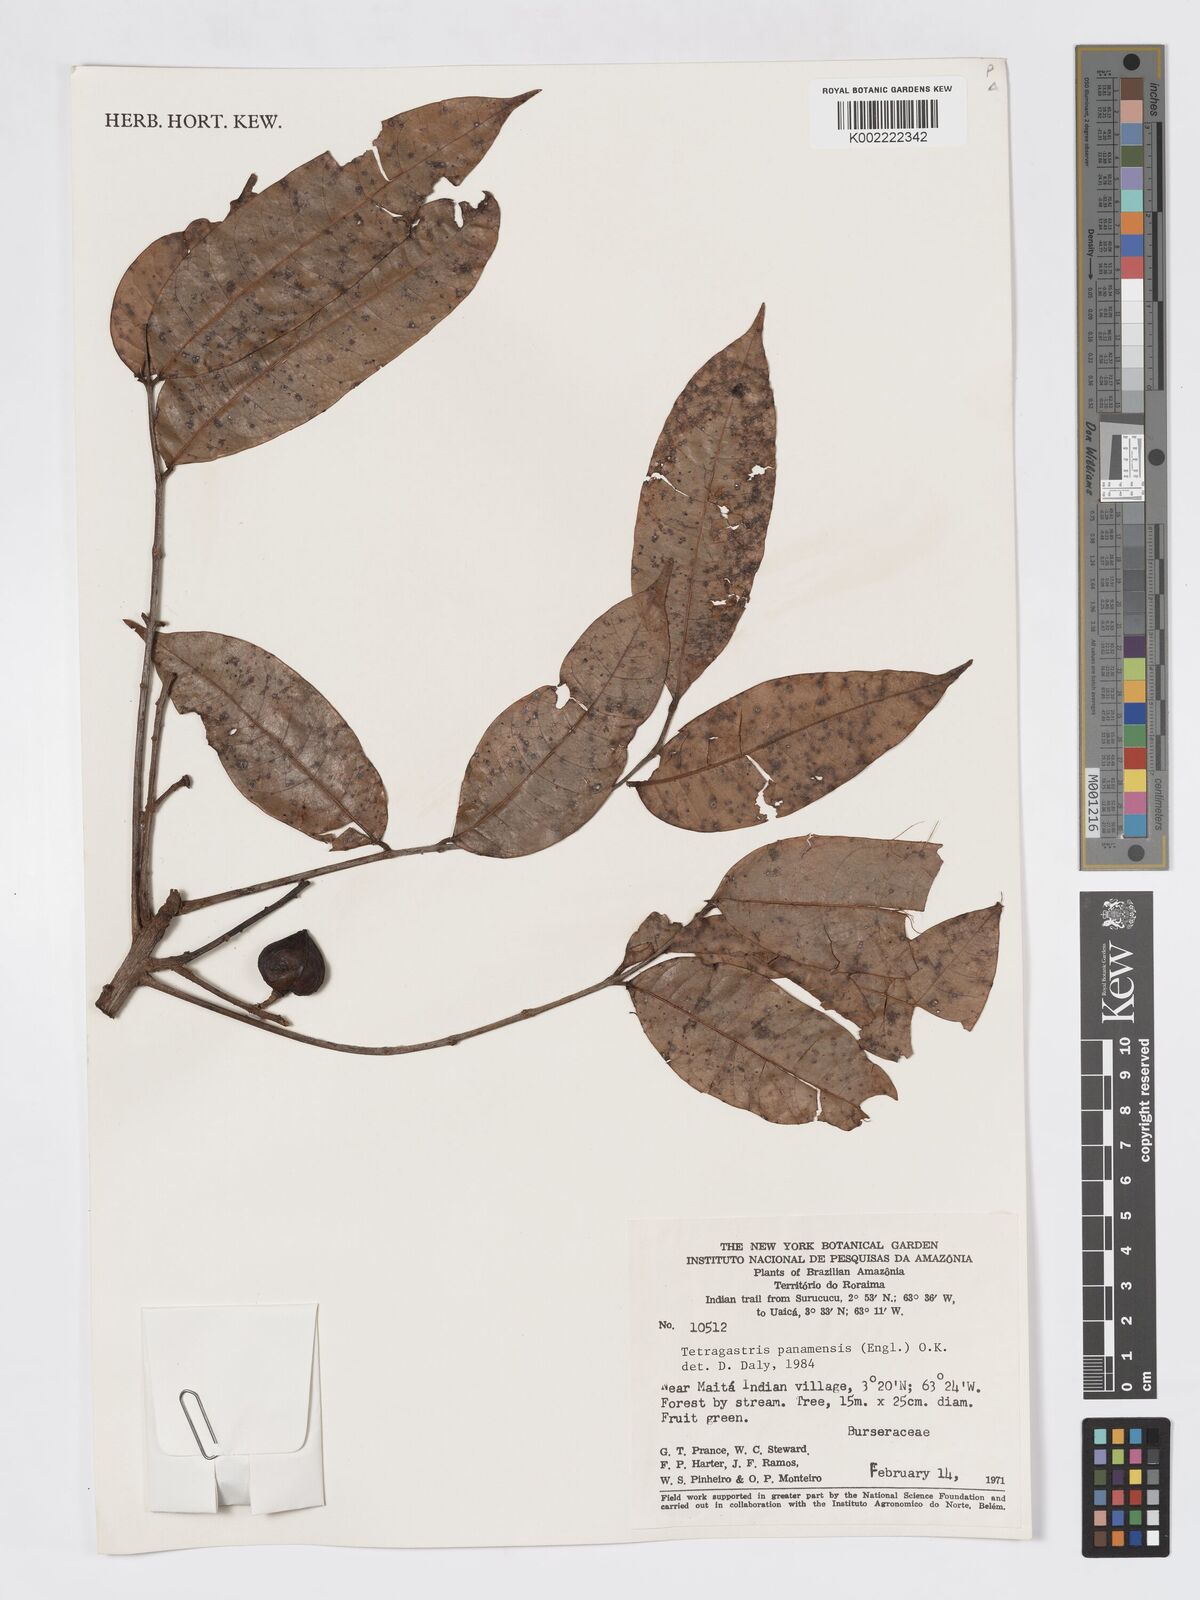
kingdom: Plantae
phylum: Tracheophyta
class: Magnoliopsida
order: Sapindales
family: Burseraceae
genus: Tetragastris
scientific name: Tetragastris panamensis
